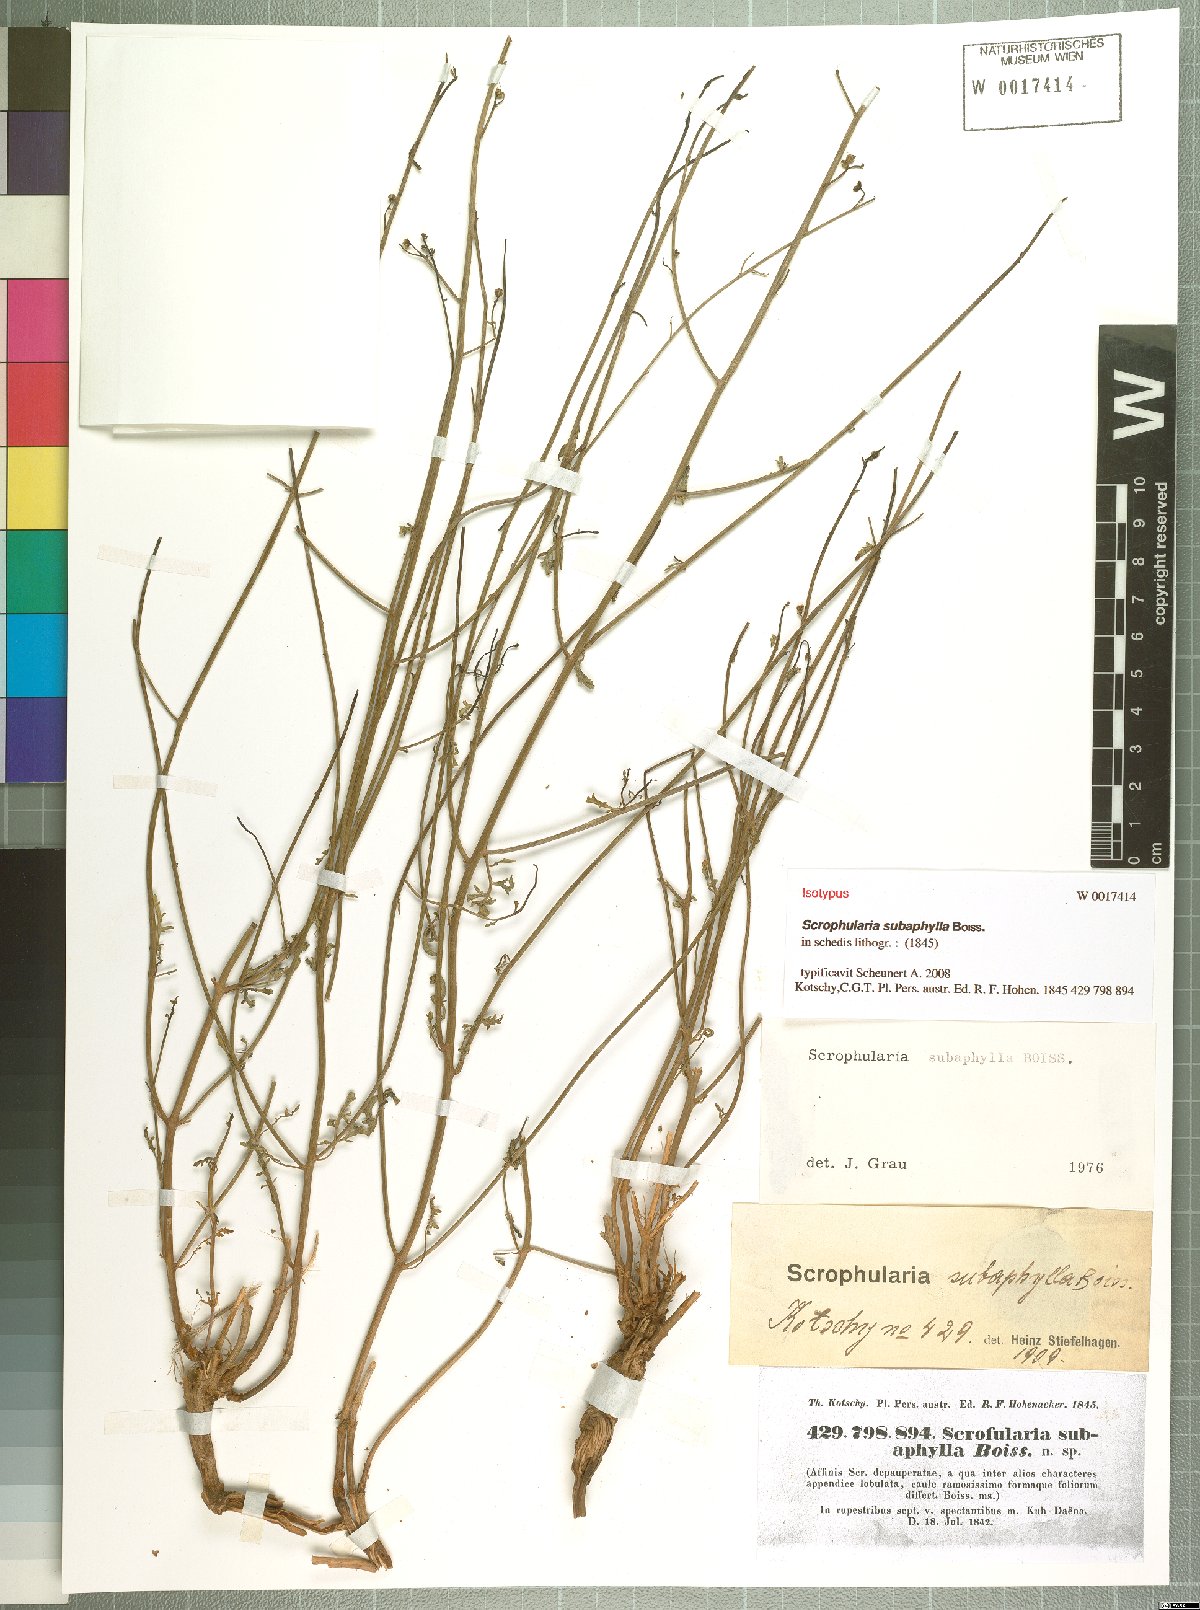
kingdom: Plantae
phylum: Tracheophyta
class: Magnoliopsida
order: Lamiales
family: Scrophulariaceae
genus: Scrophularia
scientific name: Scrophularia subaphylla
